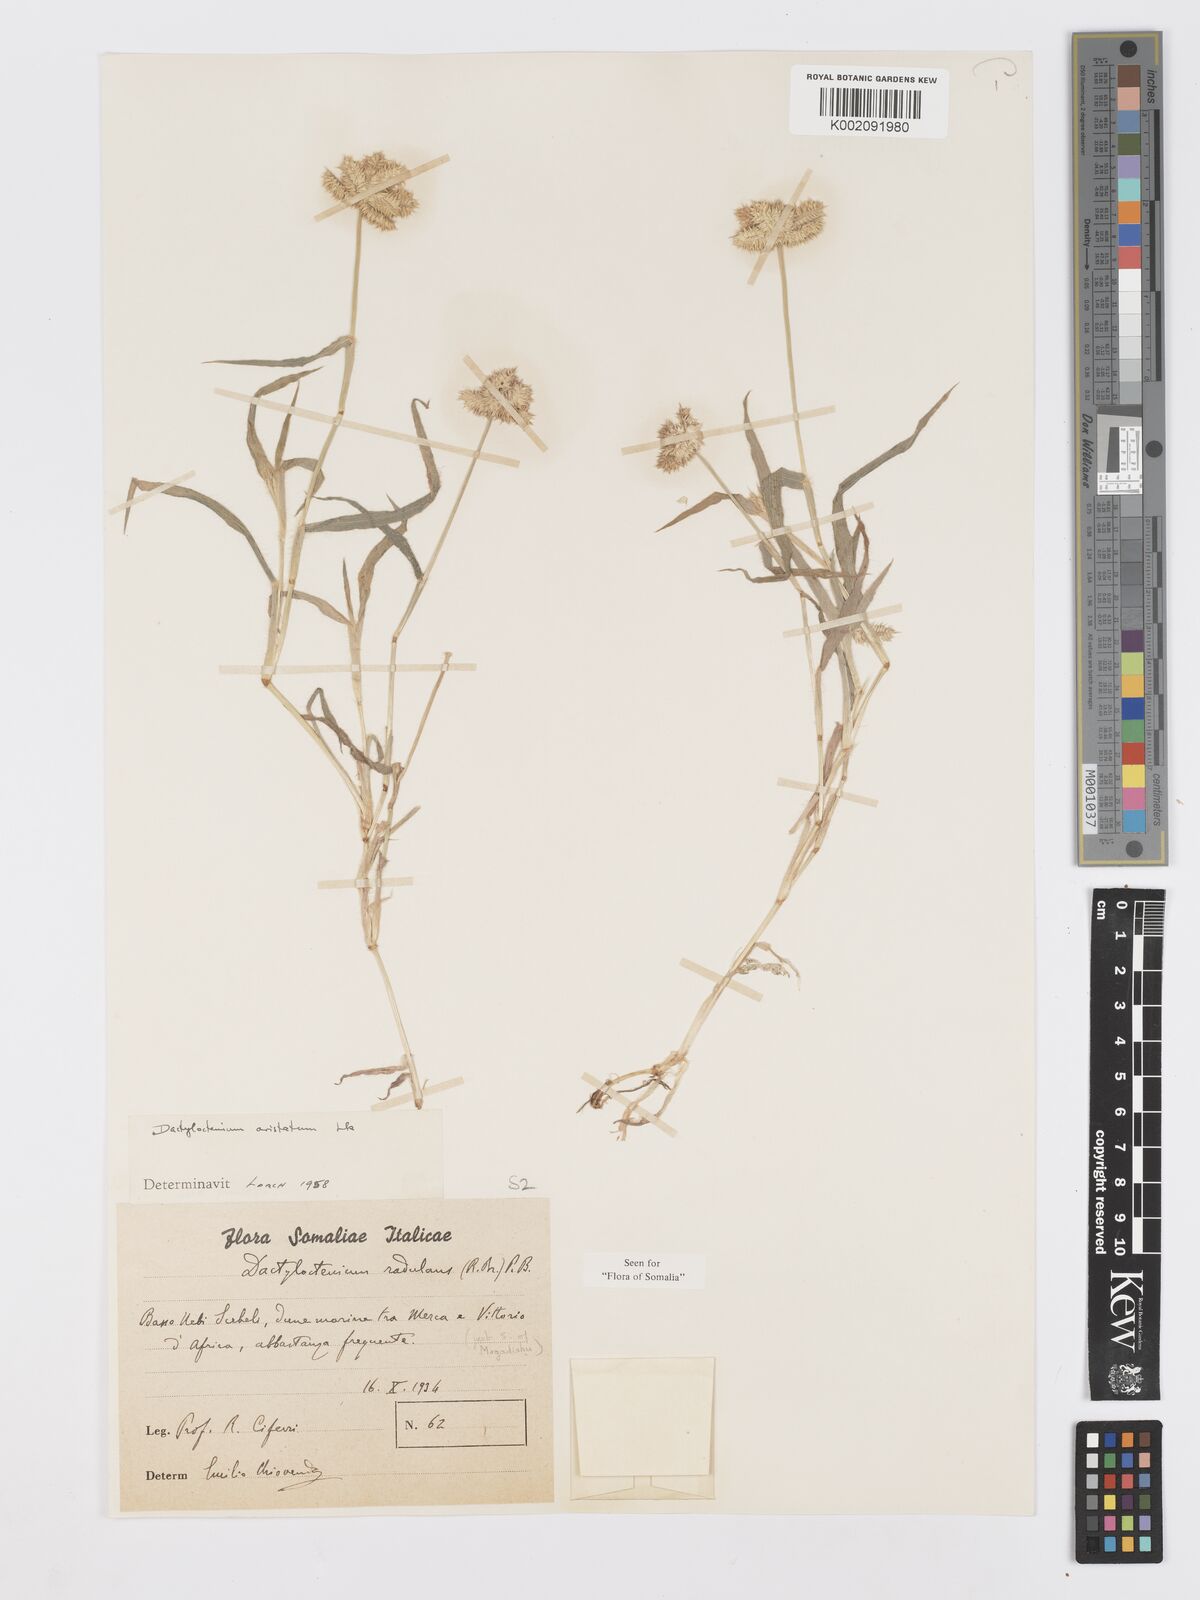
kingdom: Plantae
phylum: Tracheophyta
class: Liliopsida
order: Poales
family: Poaceae
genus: Dactyloctenium
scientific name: Dactyloctenium aristatum
